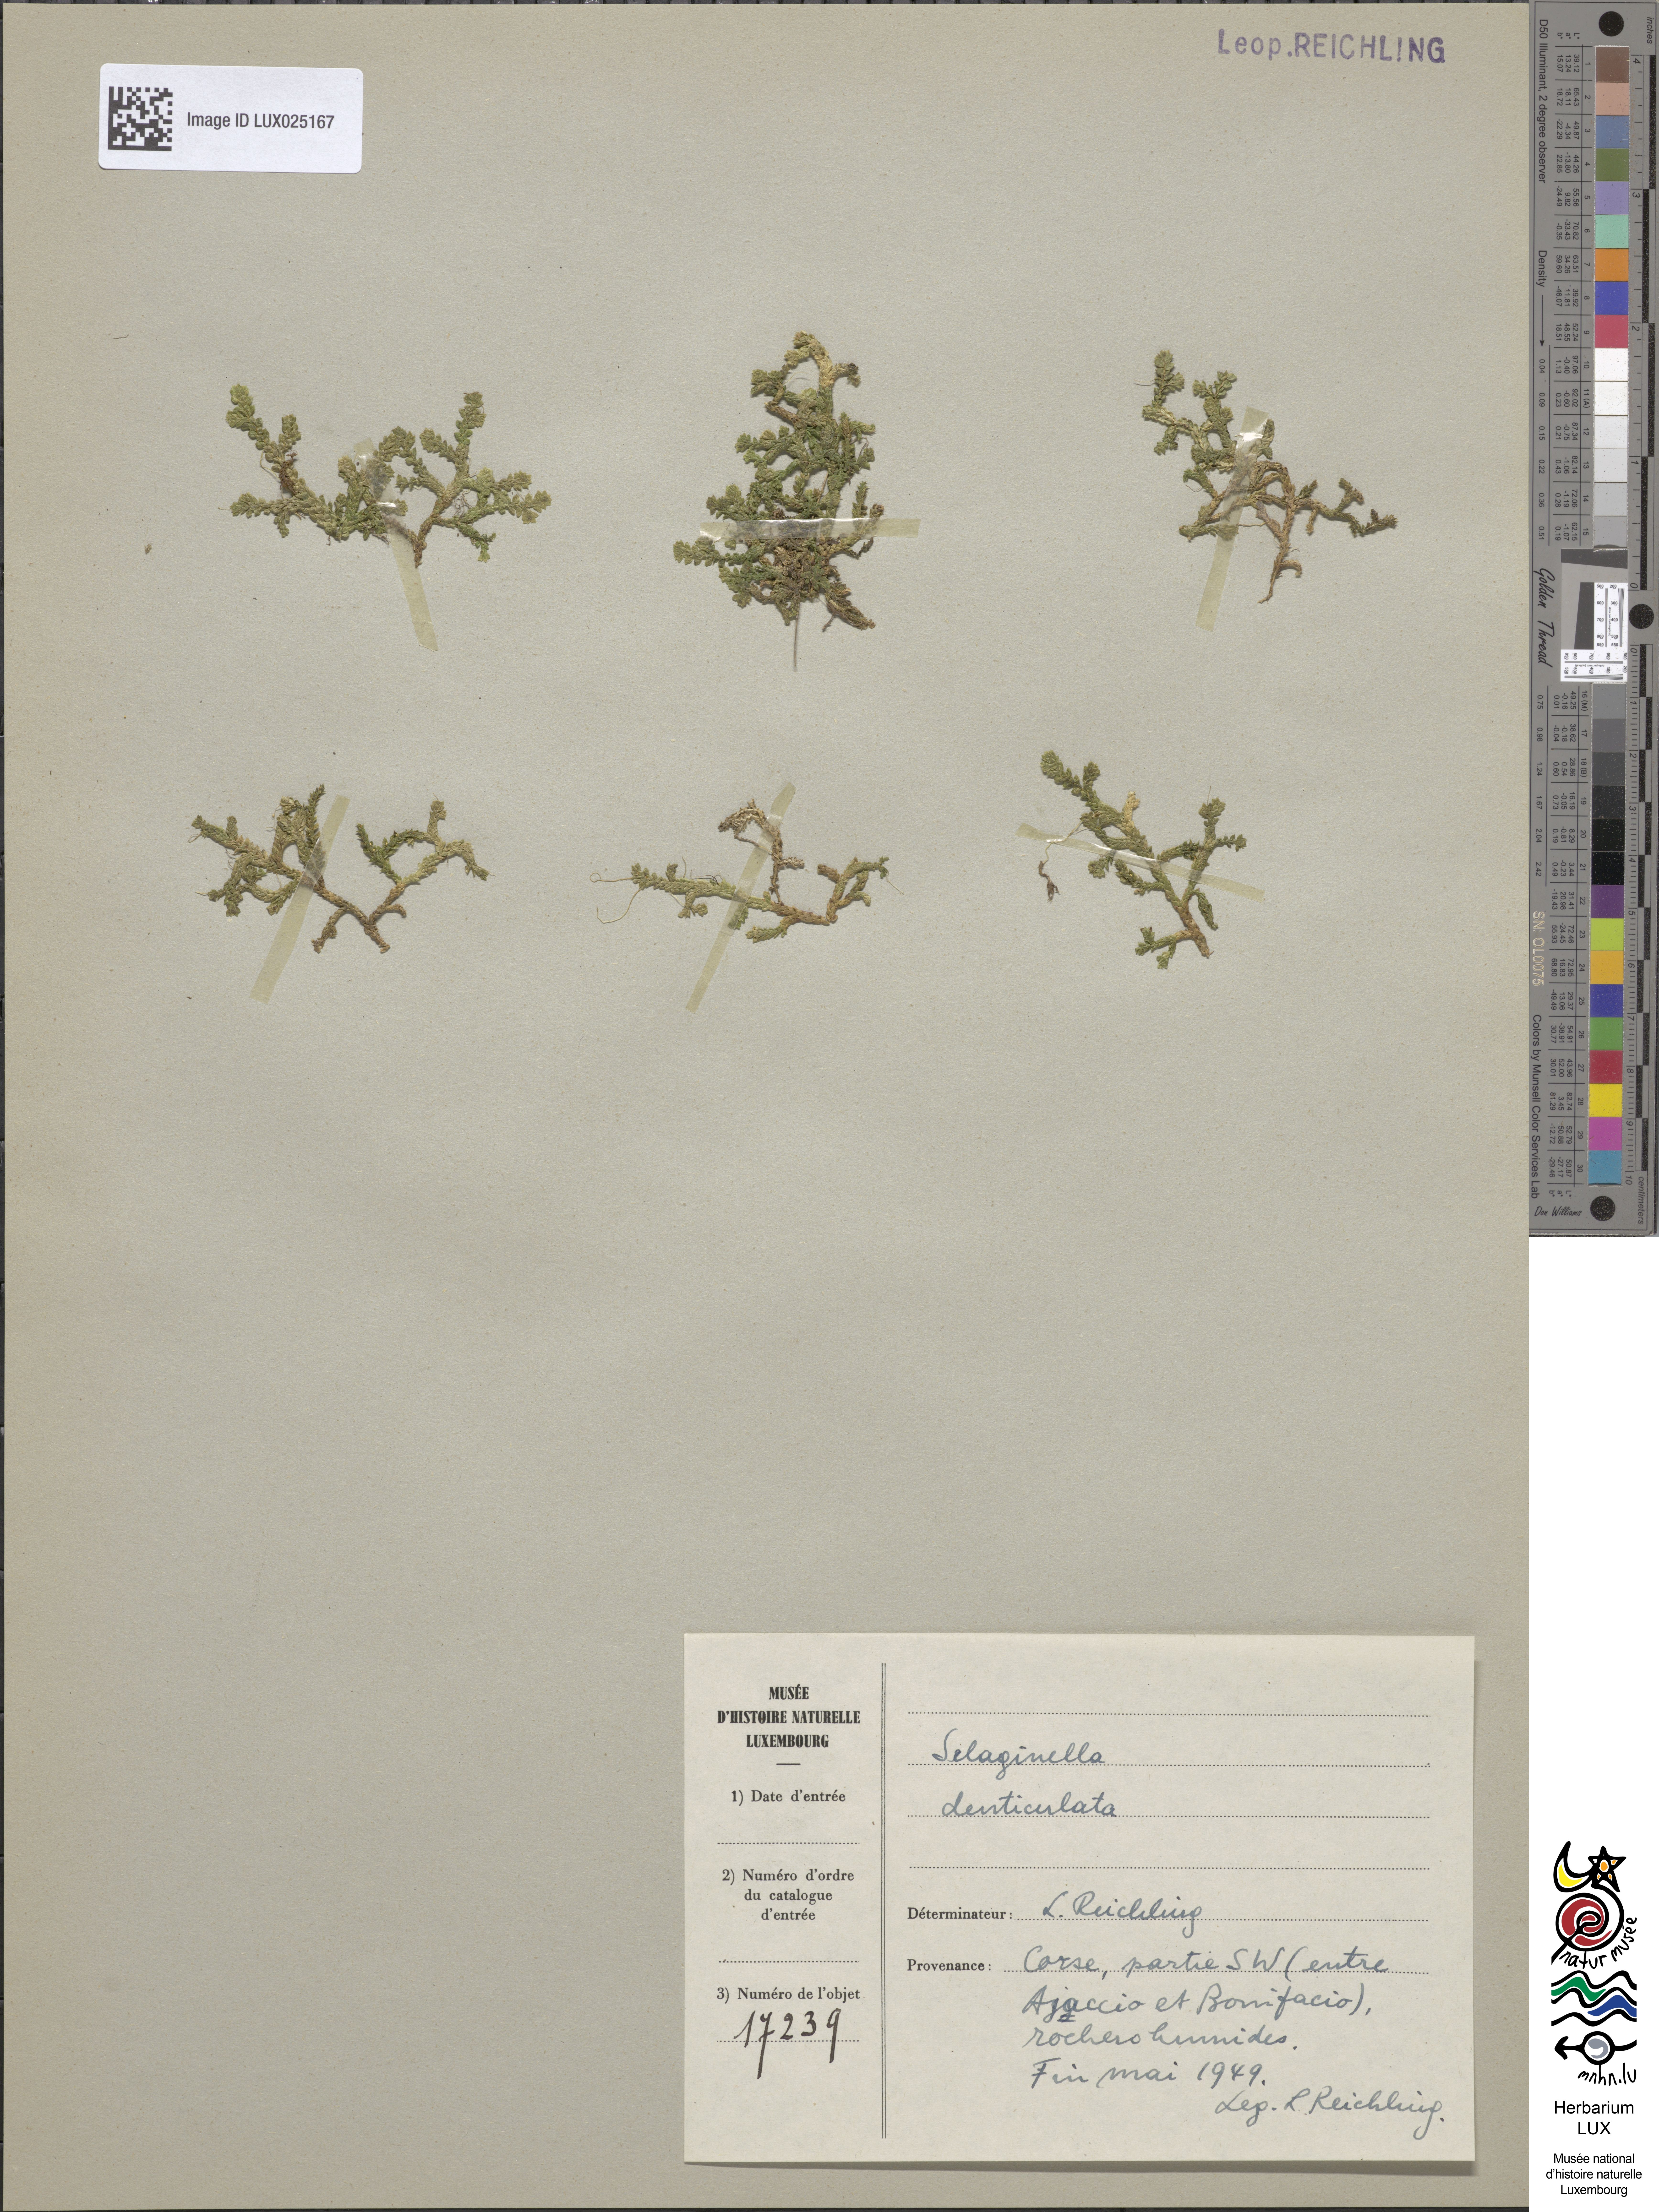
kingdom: Plantae
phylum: Tracheophyta
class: Lycopodiopsida
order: Selaginellales
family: Selaginellaceae
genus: Selaginella
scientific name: Selaginella denticulata
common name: Toothed-leaved clubmoss
